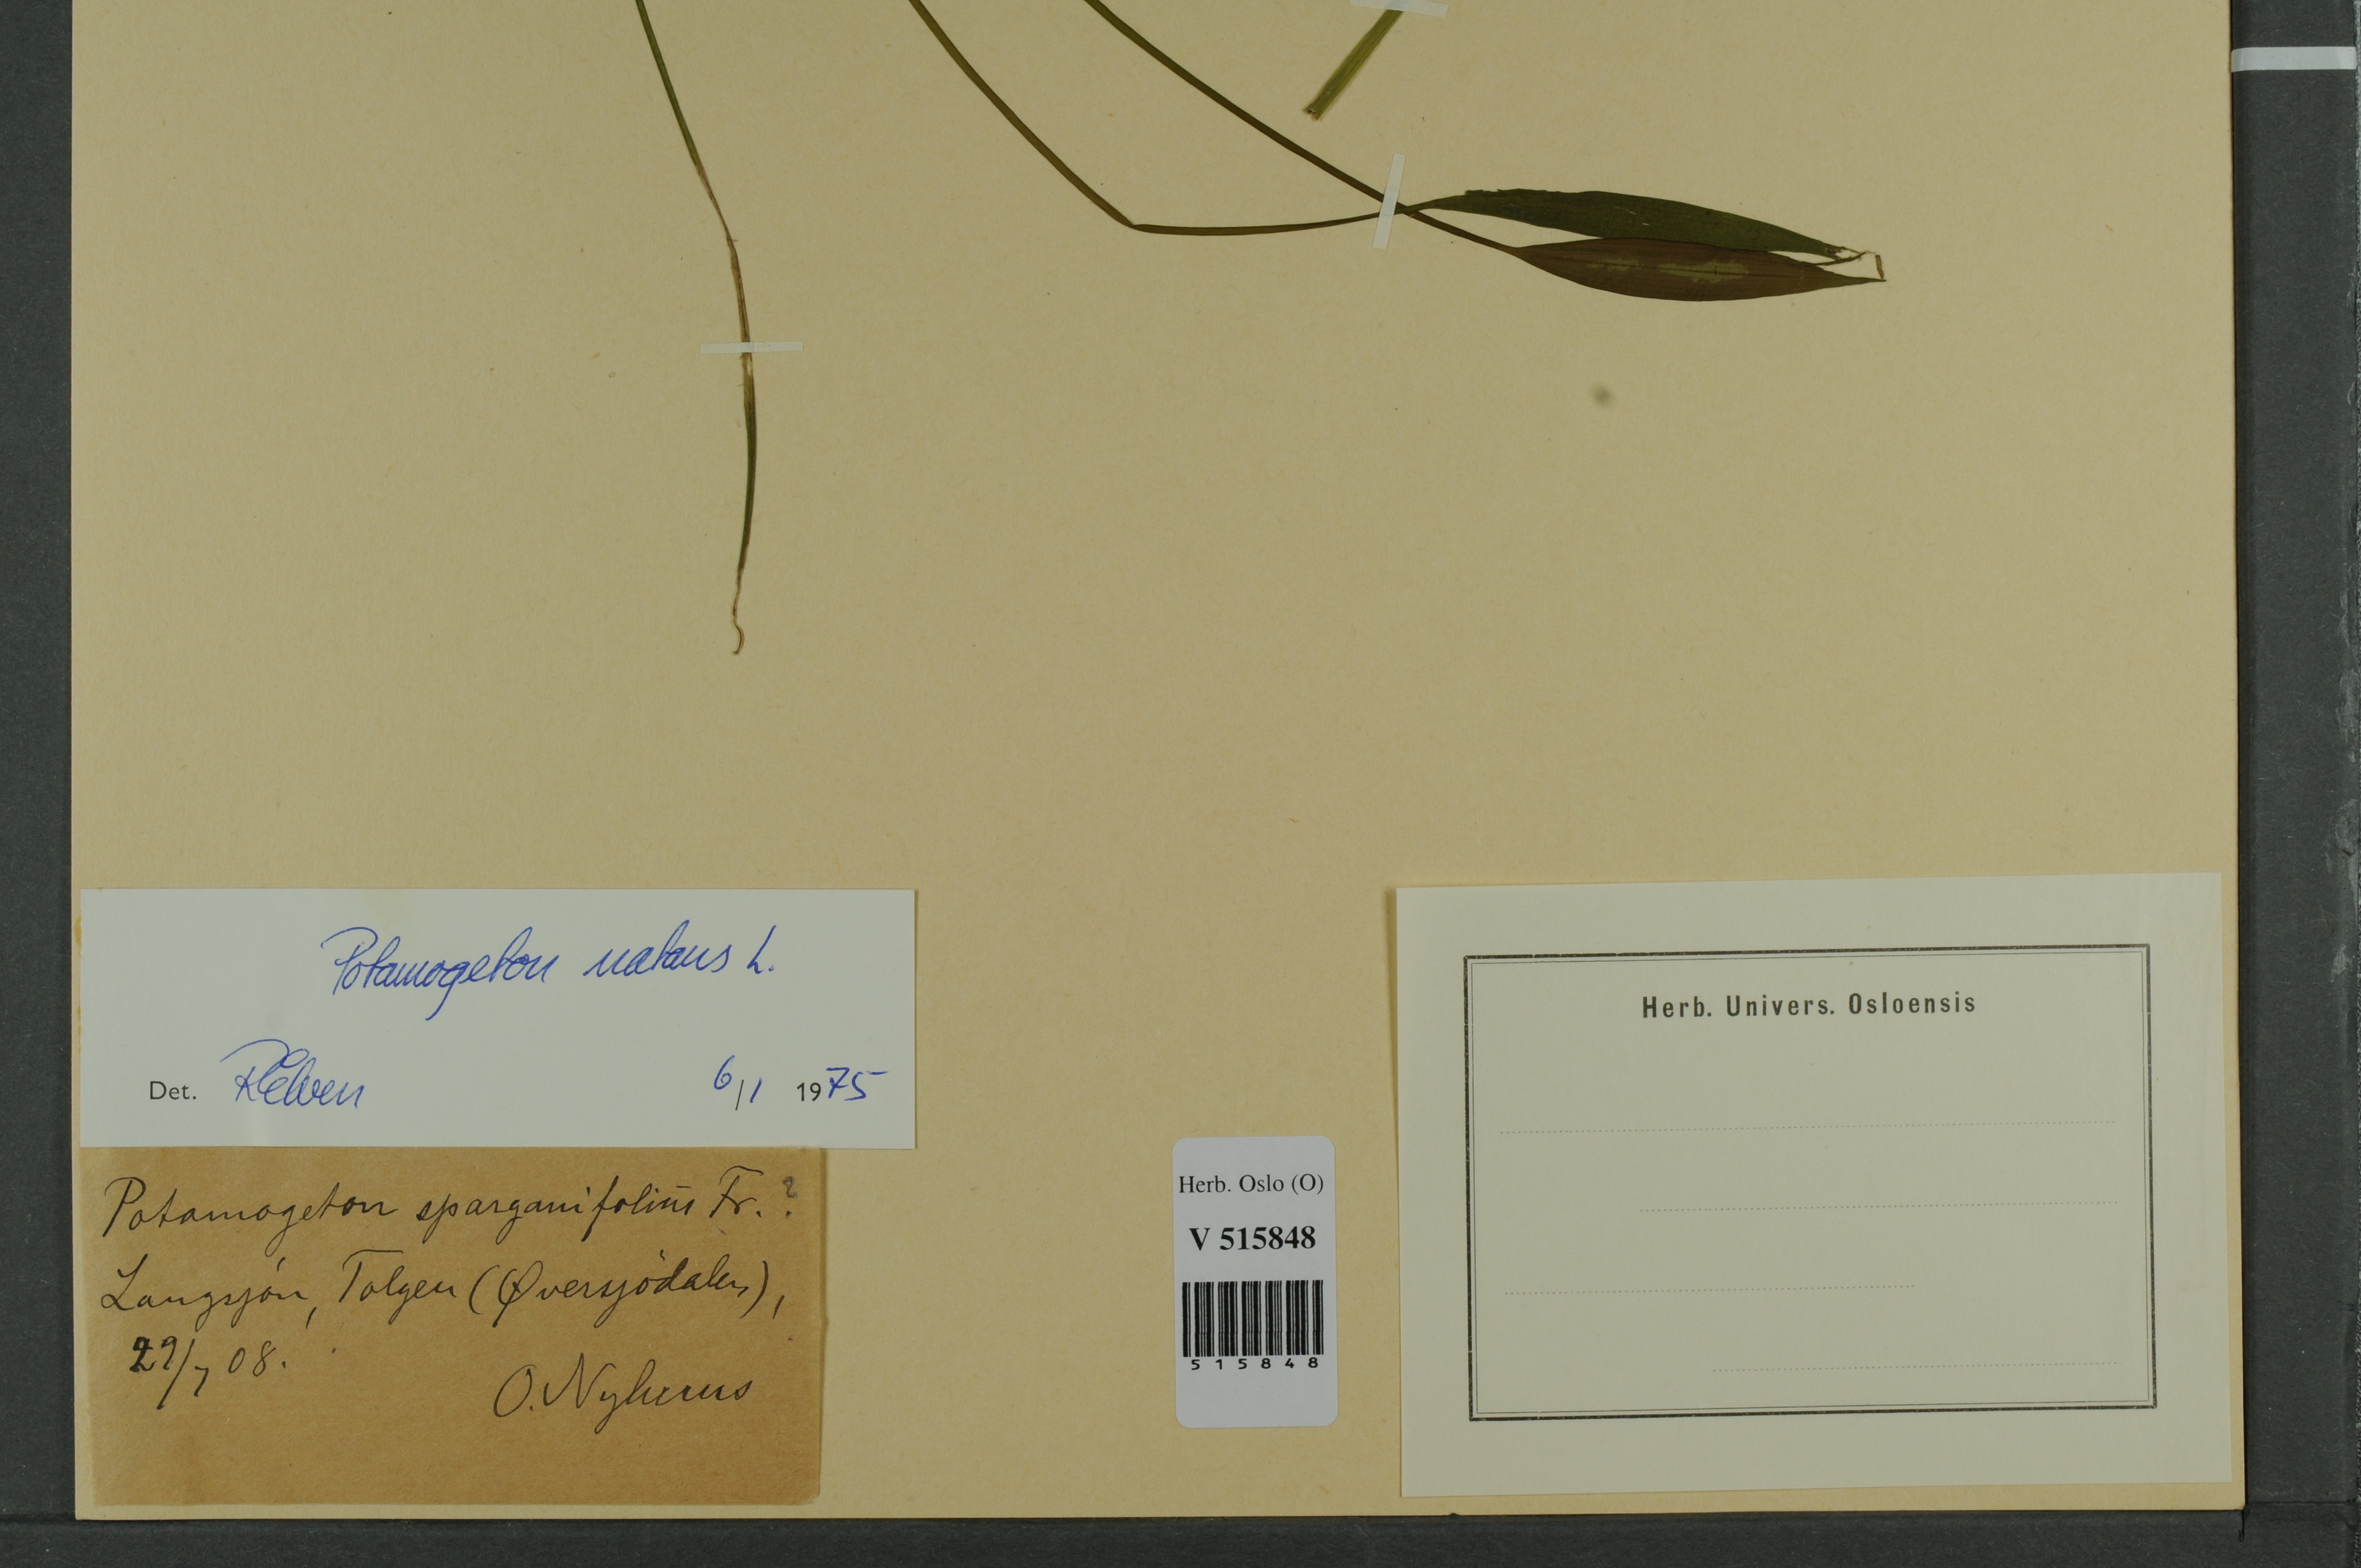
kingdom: Plantae
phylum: Tracheophyta
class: Liliopsida
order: Alismatales
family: Potamogetonaceae
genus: Potamogeton
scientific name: Potamogeton natans
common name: Broad-leaved pondweed
